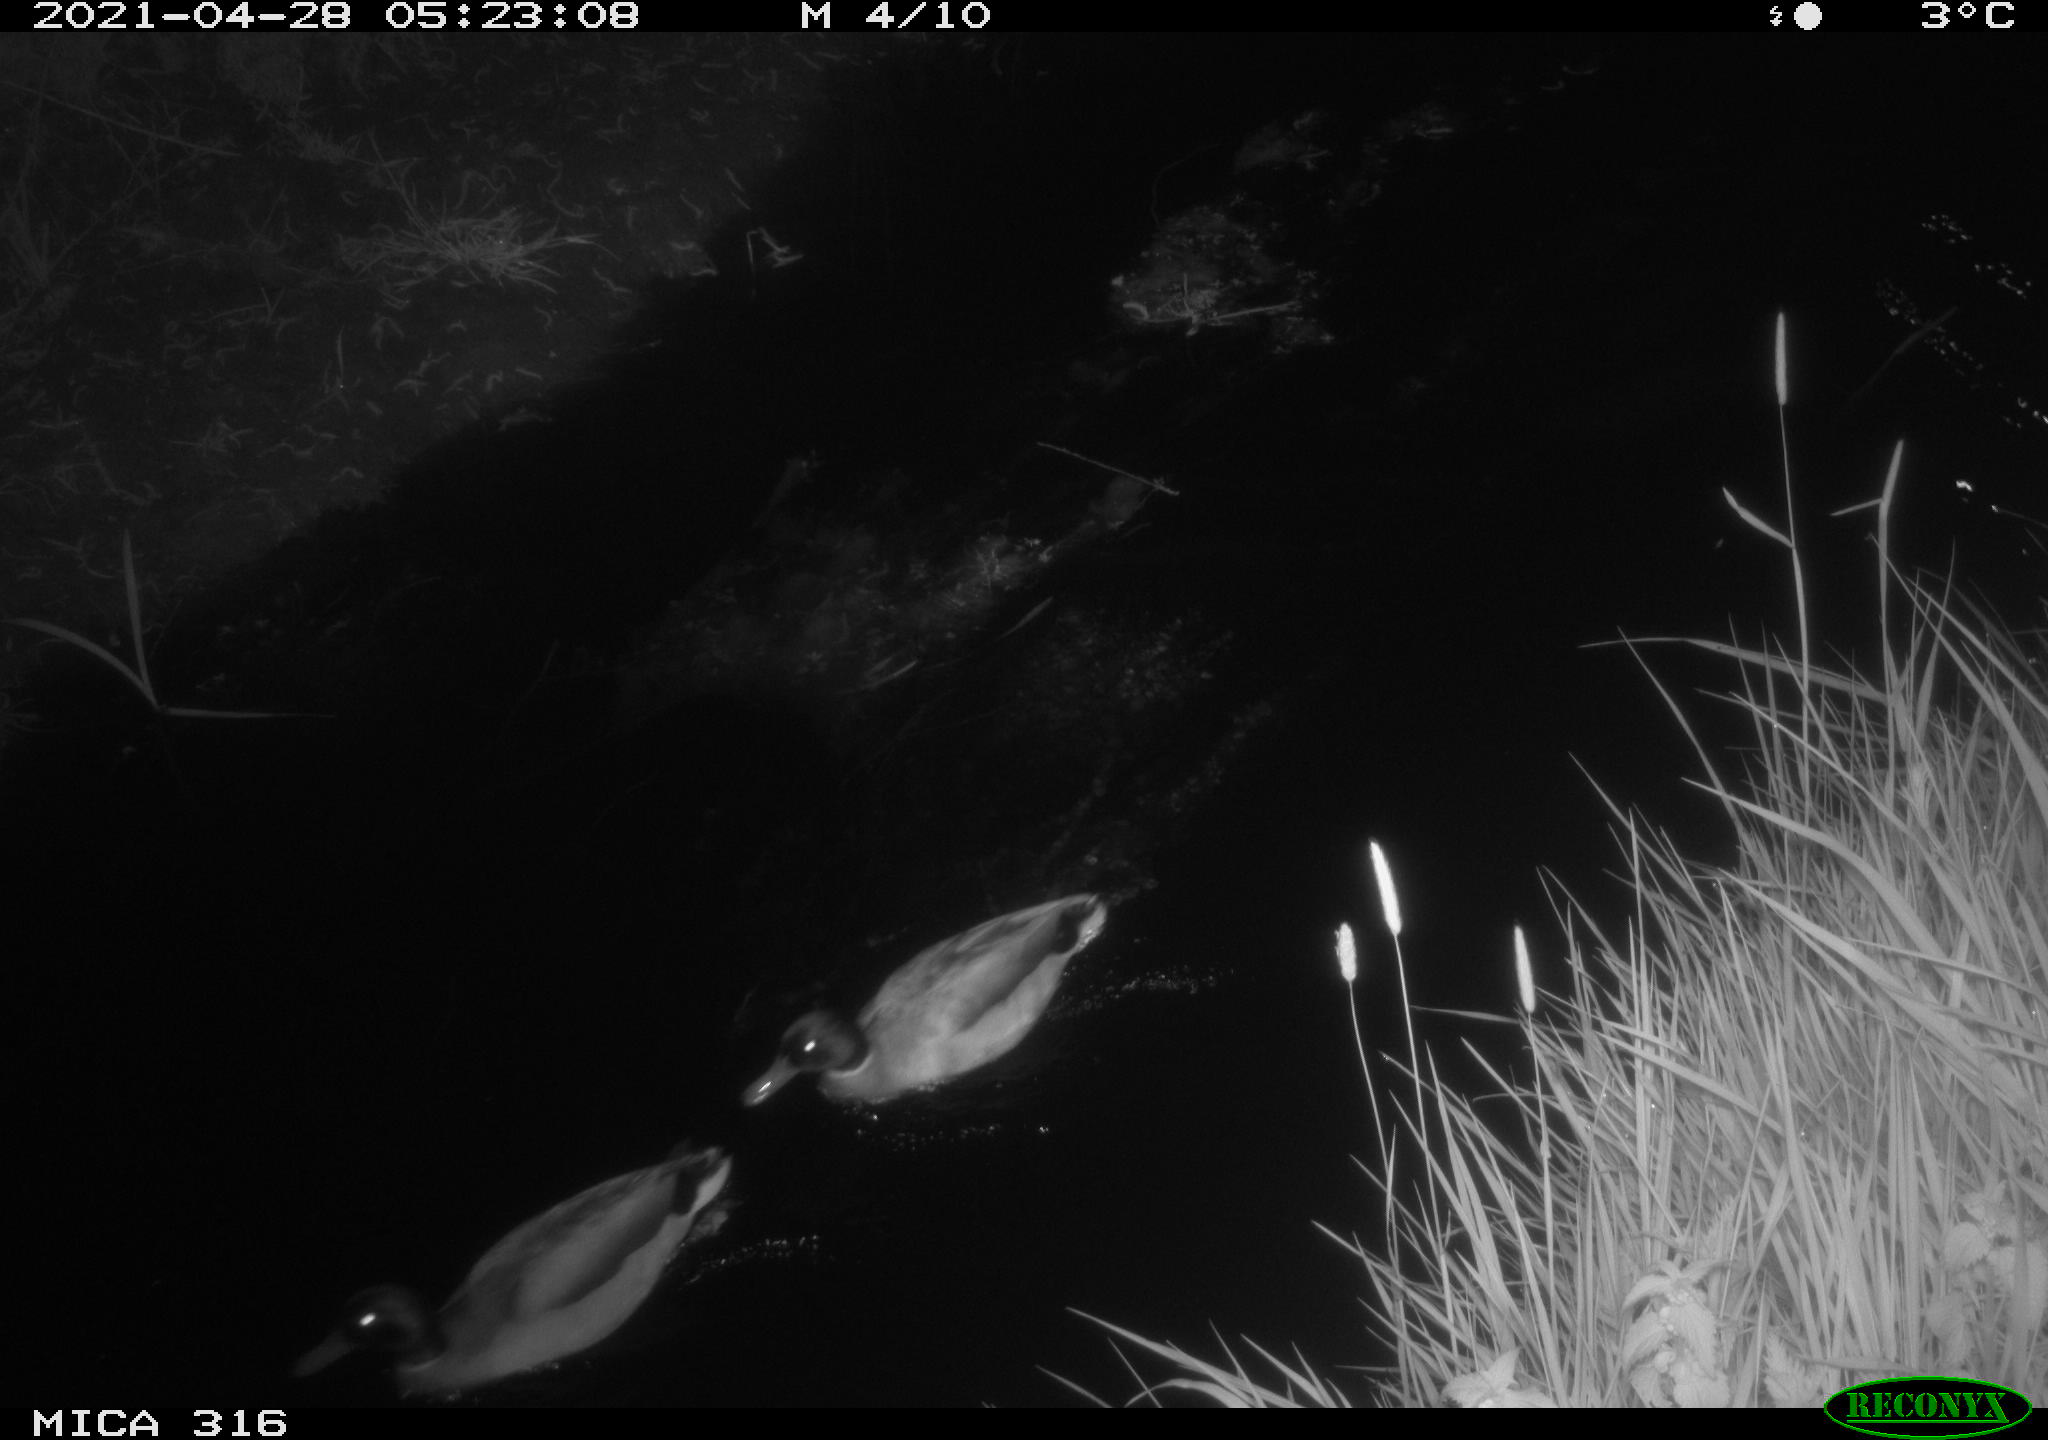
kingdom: Animalia
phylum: Chordata
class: Aves
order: Anseriformes
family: Anatidae
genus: Anas
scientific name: Anas platyrhynchos
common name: Mallard
